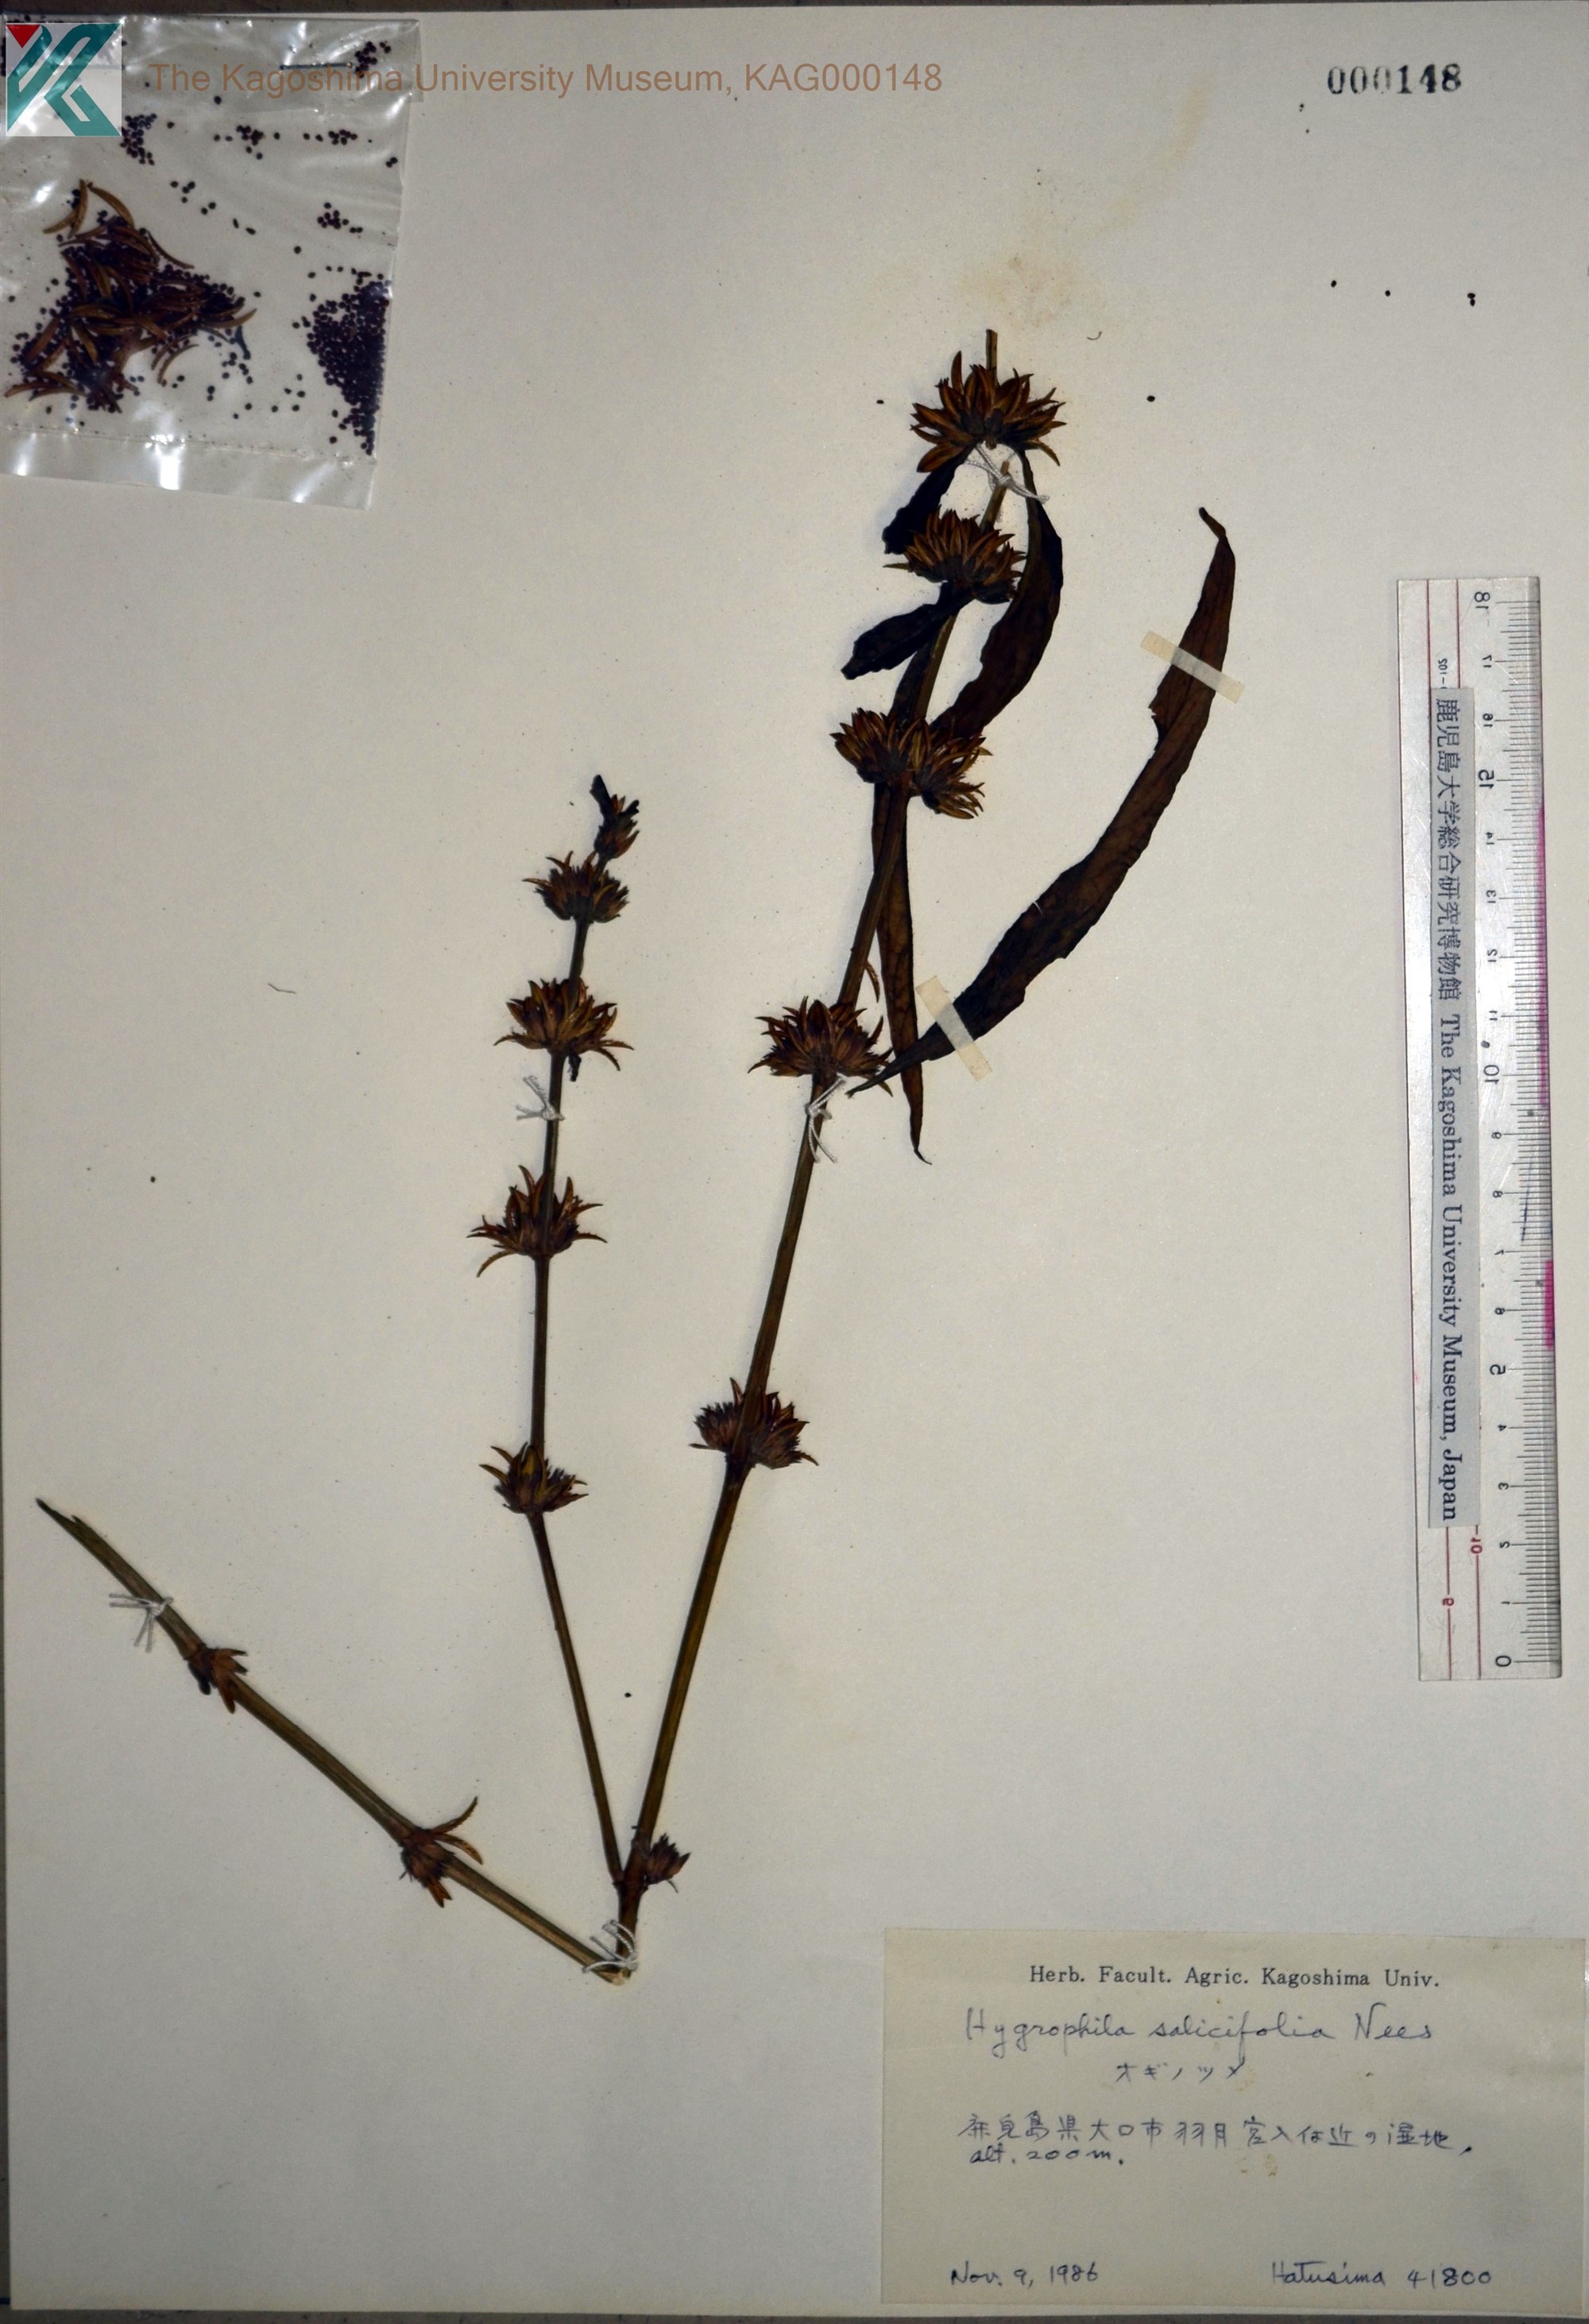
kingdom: Plantae
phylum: Tracheophyta
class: Magnoliopsida
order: Lamiales
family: Acanthaceae
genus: Hygrophila
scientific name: Hygrophila ringens
